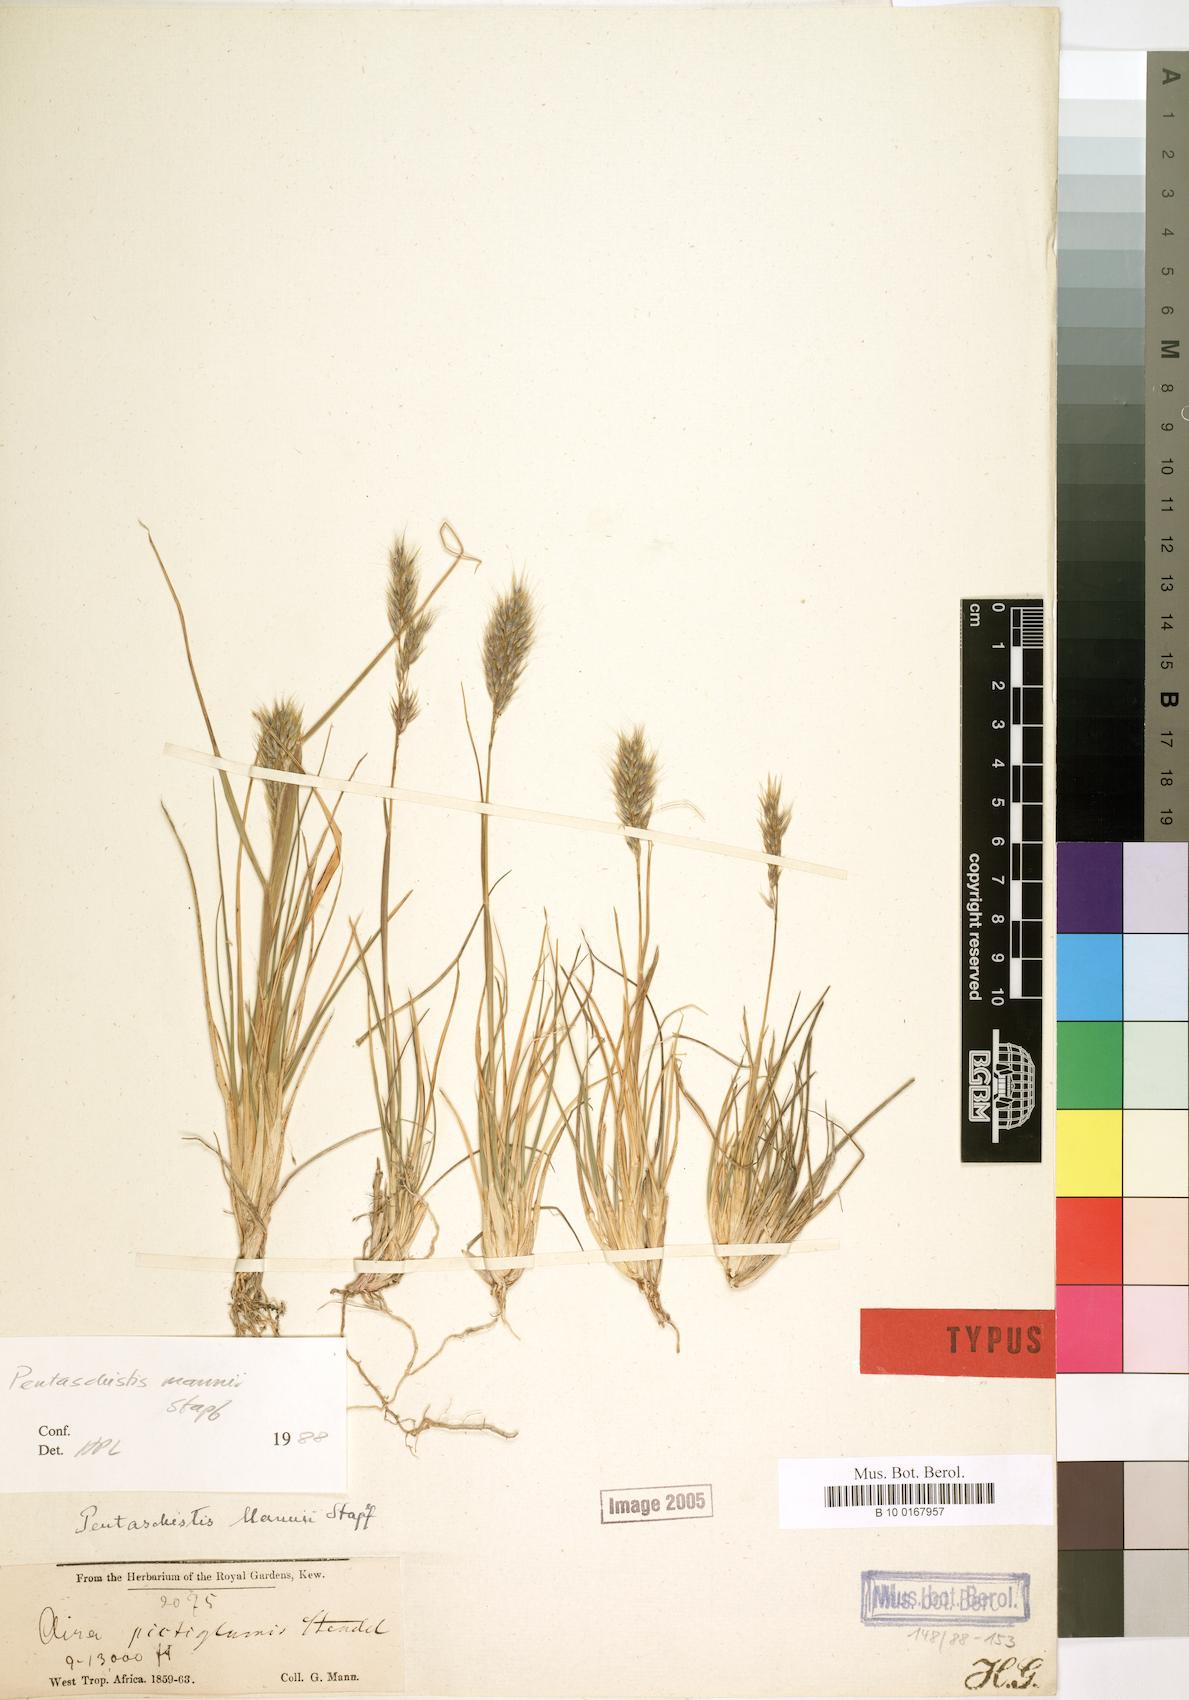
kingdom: Plantae
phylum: Tracheophyta
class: Liliopsida
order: Poales
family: Poaceae
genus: Pentameris
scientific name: Pentameris pictigluma
